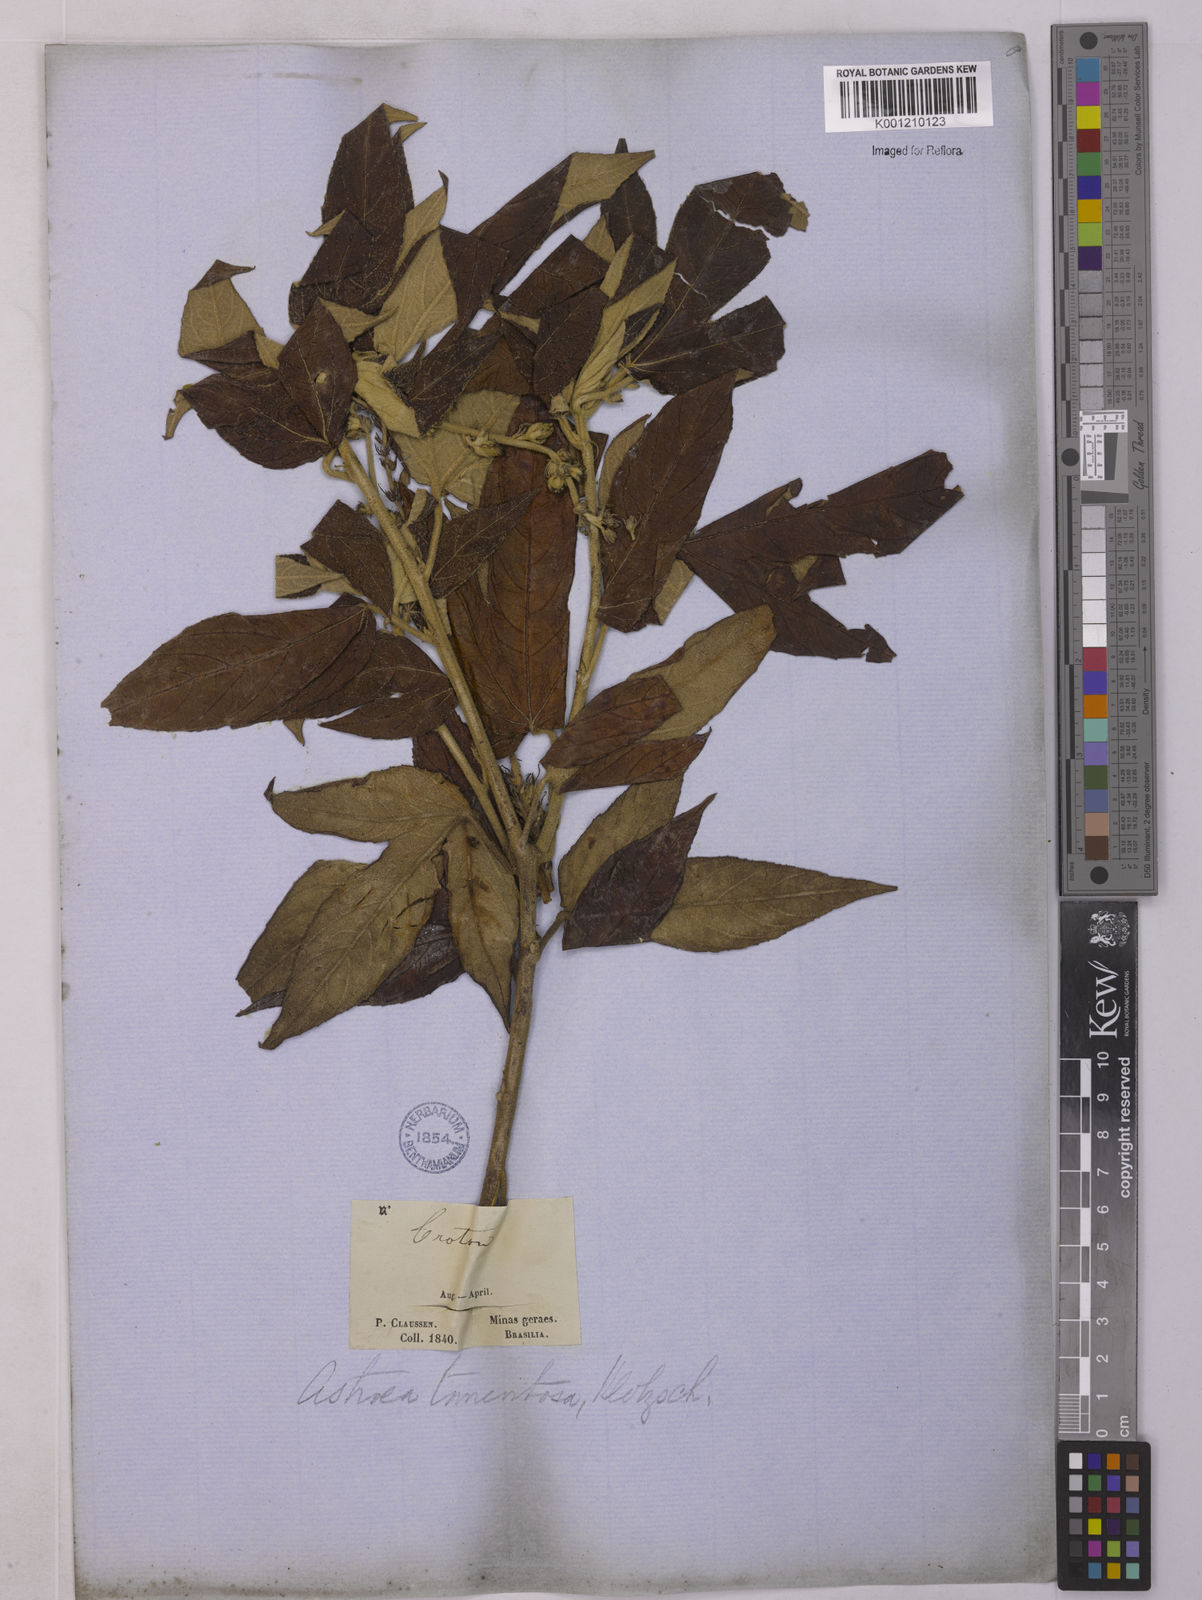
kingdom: Plantae
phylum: Tracheophyta
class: Magnoliopsida
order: Malpighiales
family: Euphorbiaceae
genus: Astraea
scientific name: Astraea
